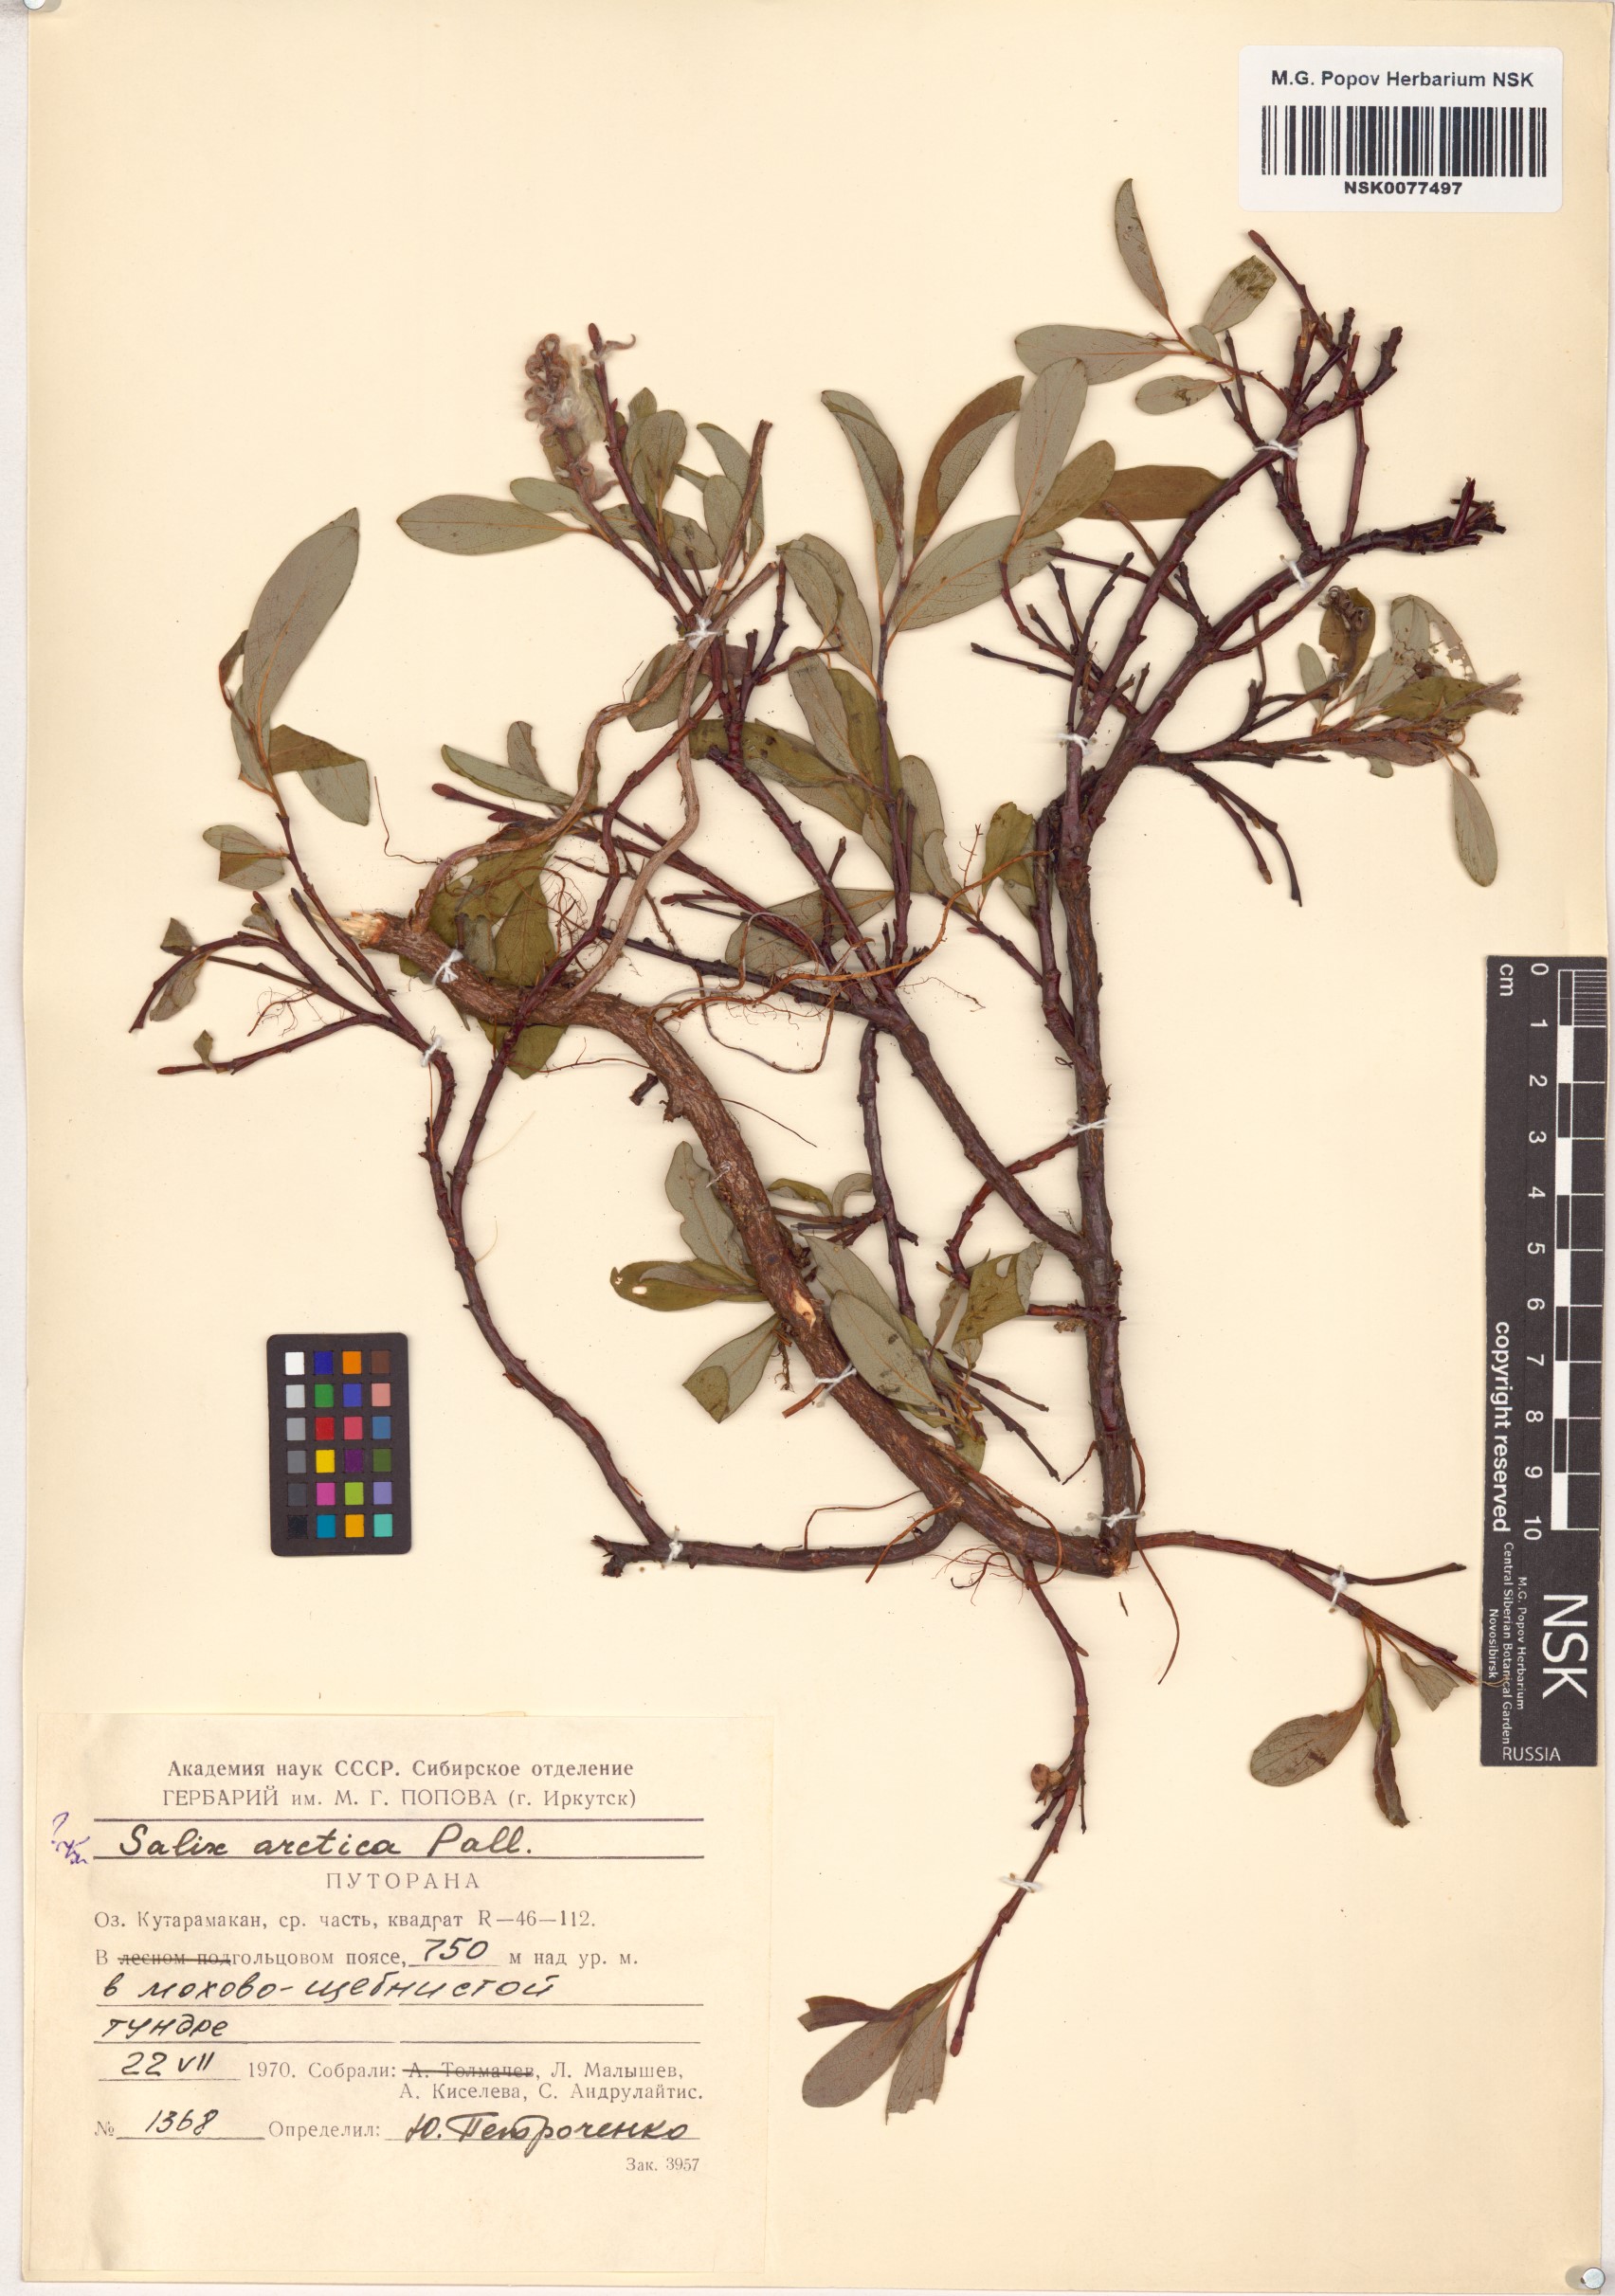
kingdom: Plantae
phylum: Tracheophyta
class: Magnoliopsida
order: Malpighiales
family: Salicaceae
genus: Salix
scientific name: Salix arctica
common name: Arctic willow
